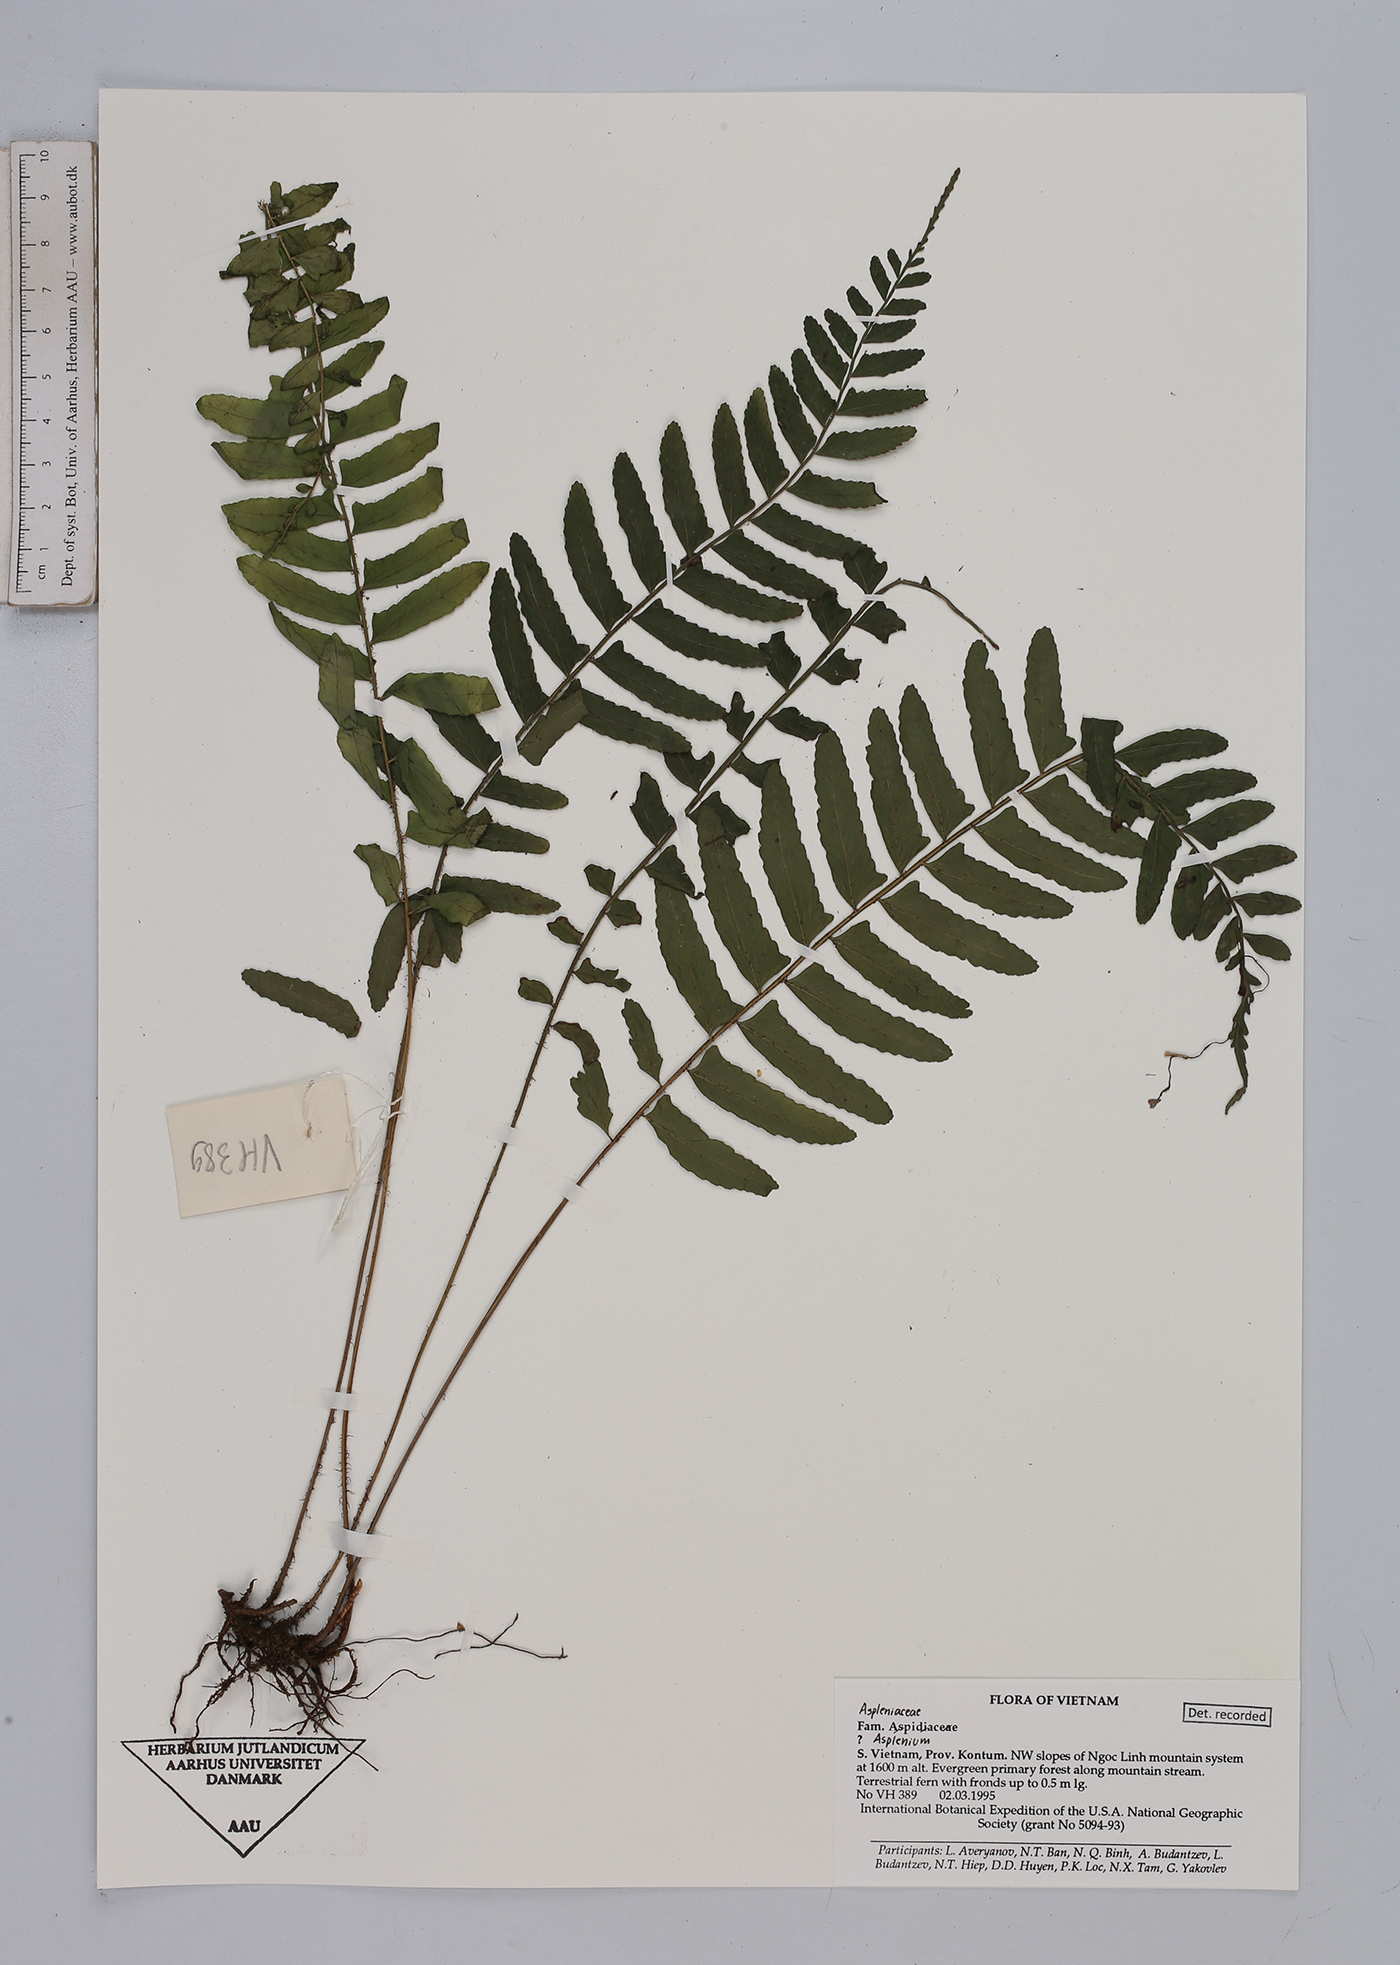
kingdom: Plantae
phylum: Tracheophyta
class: Polypodiopsida
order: Polypodiales
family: Aspleniaceae
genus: Asplenium
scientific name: Asplenium
